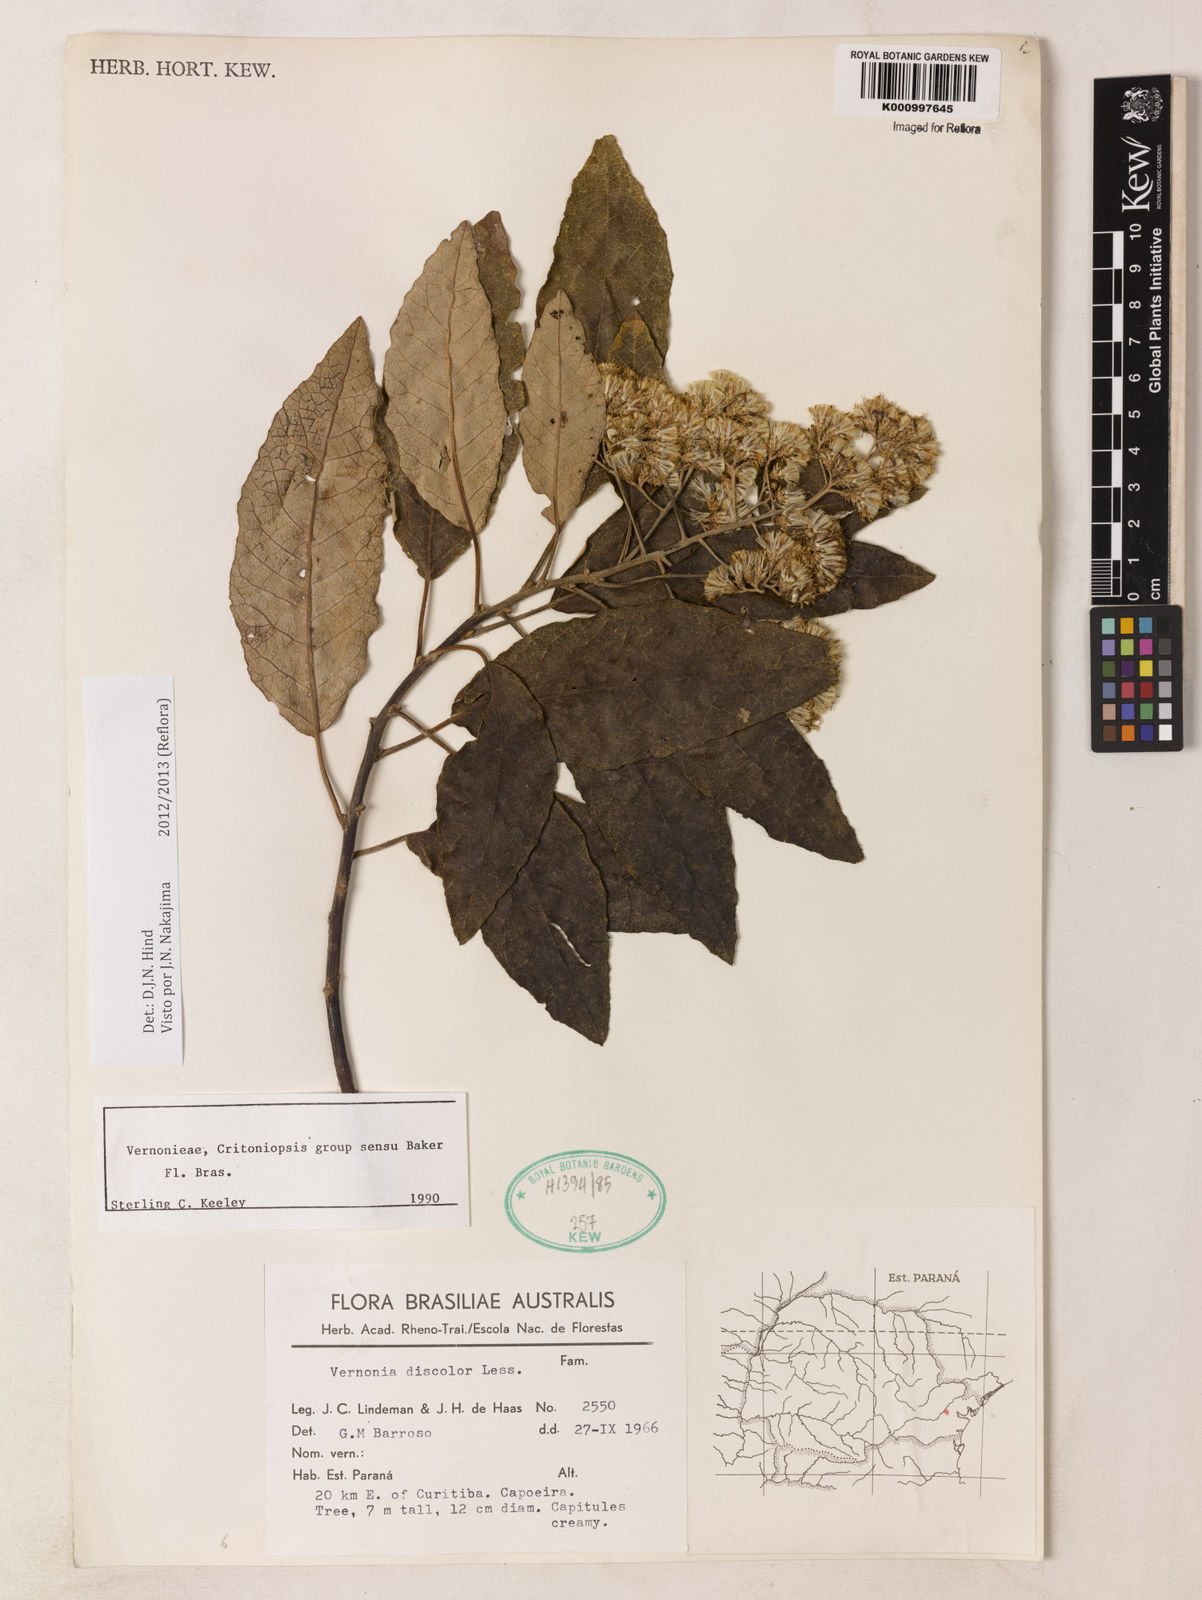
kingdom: Plantae
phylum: Tracheophyta
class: Magnoliopsida
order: Asterales
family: Asteraceae
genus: Vernonanthura
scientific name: Vernonanthura discolor
